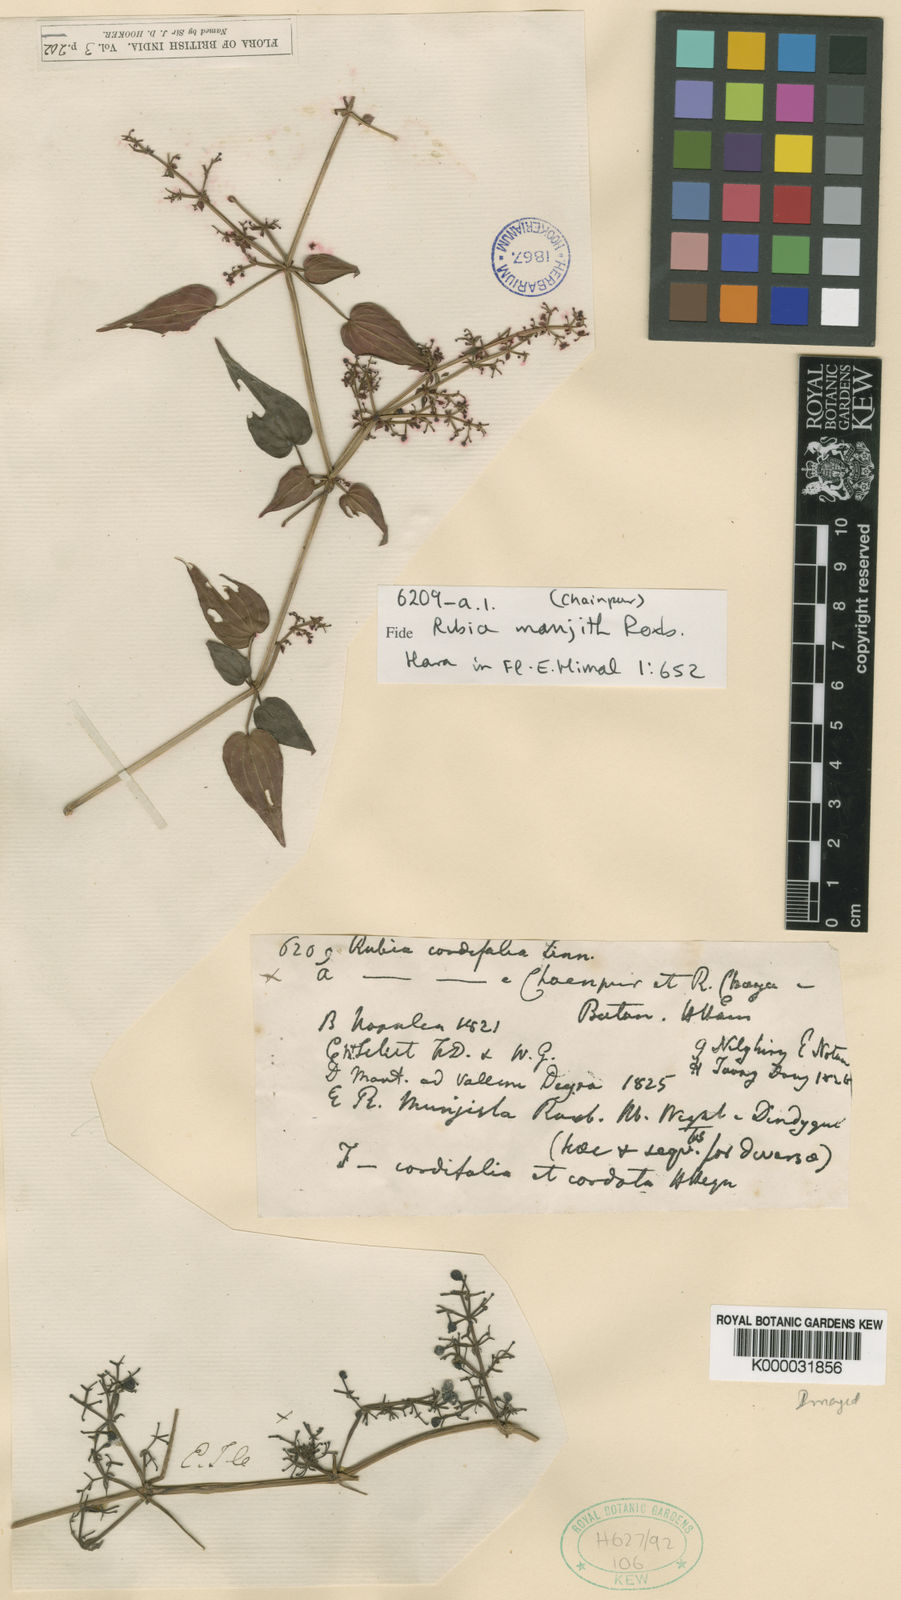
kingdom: Plantae
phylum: Tracheophyta
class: Magnoliopsida
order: Gentianales
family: Rubiaceae
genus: Rubia
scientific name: Rubia manjith
